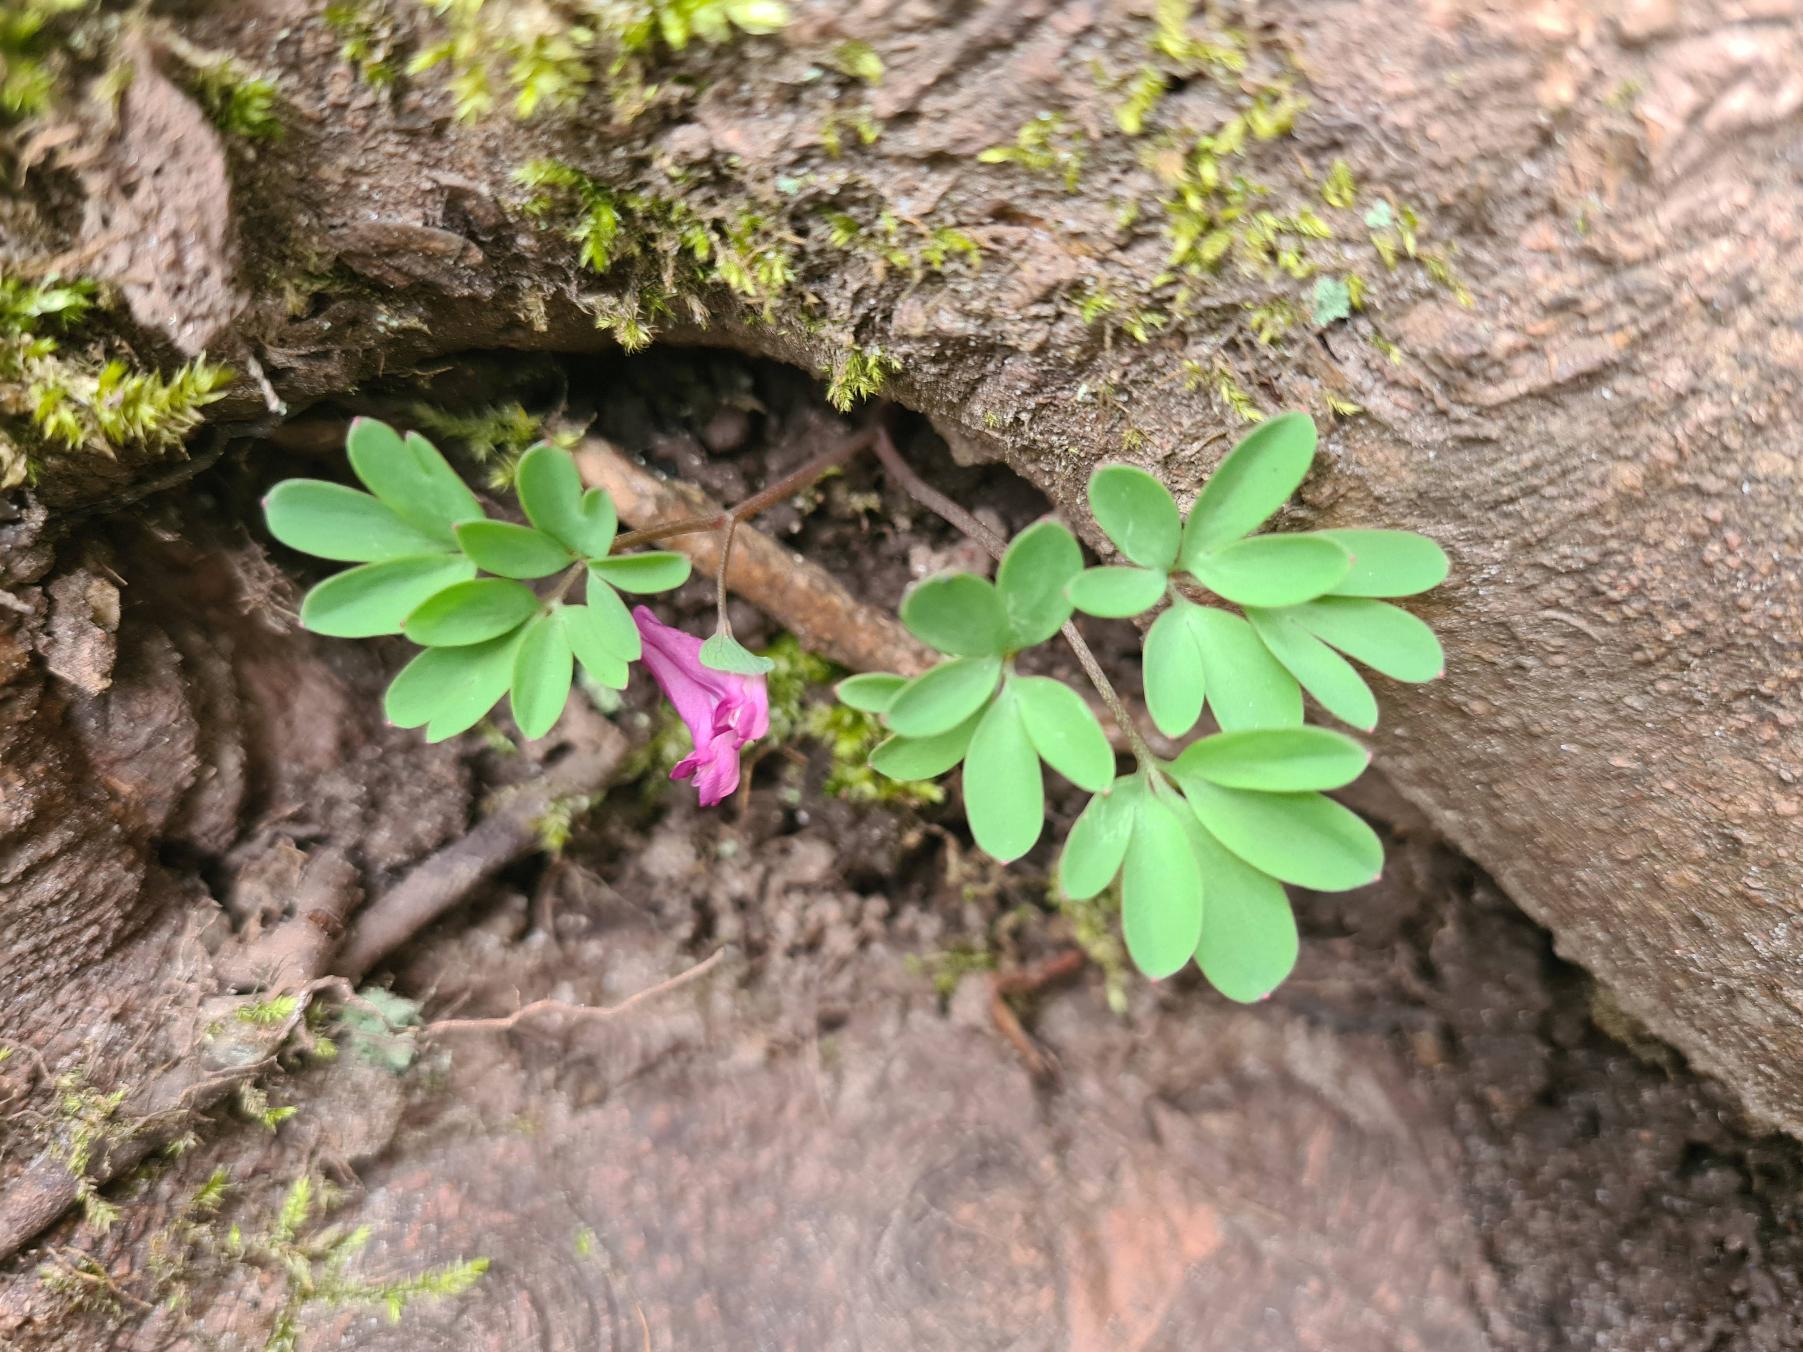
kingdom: Plantae
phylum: Tracheophyta
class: Magnoliopsida
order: Ranunculales
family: Papaveraceae
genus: Corydalis
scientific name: Corydalis intermedia
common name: Liden lærkespore
